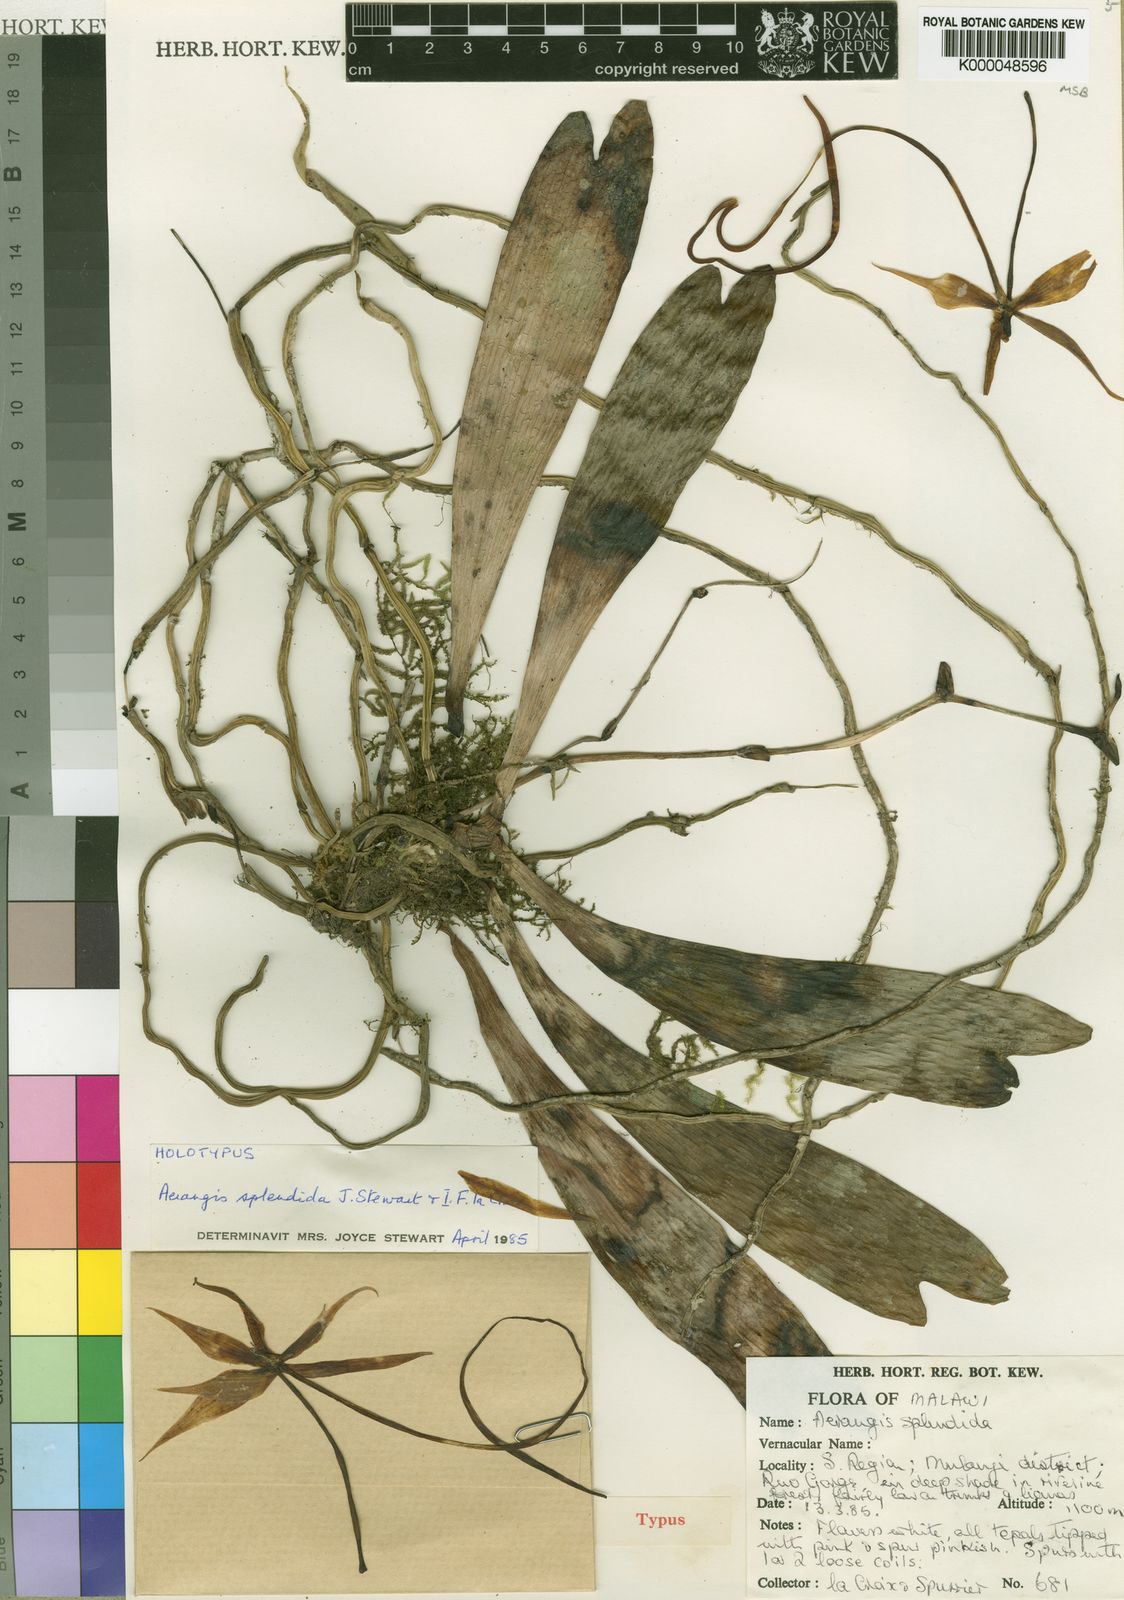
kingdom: Plantae
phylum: Tracheophyta
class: Liliopsida
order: Asparagales
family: Orchidaceae
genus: Aerangis
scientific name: Aerangis splendida
